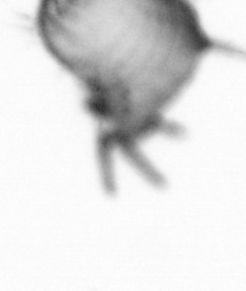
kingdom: Animalia
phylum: Annelida
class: Polychaeta
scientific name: Polychaeta
